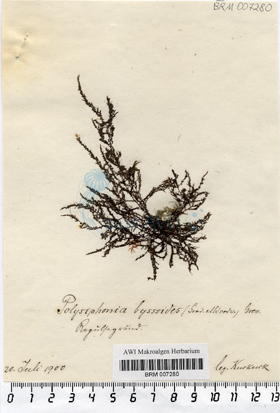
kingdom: Plantae
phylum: Rhodophyta
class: Florideophyceae
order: Ceramiales
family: Rhodomelaceae
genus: Vertebrata
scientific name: Vertebrata byssoides
